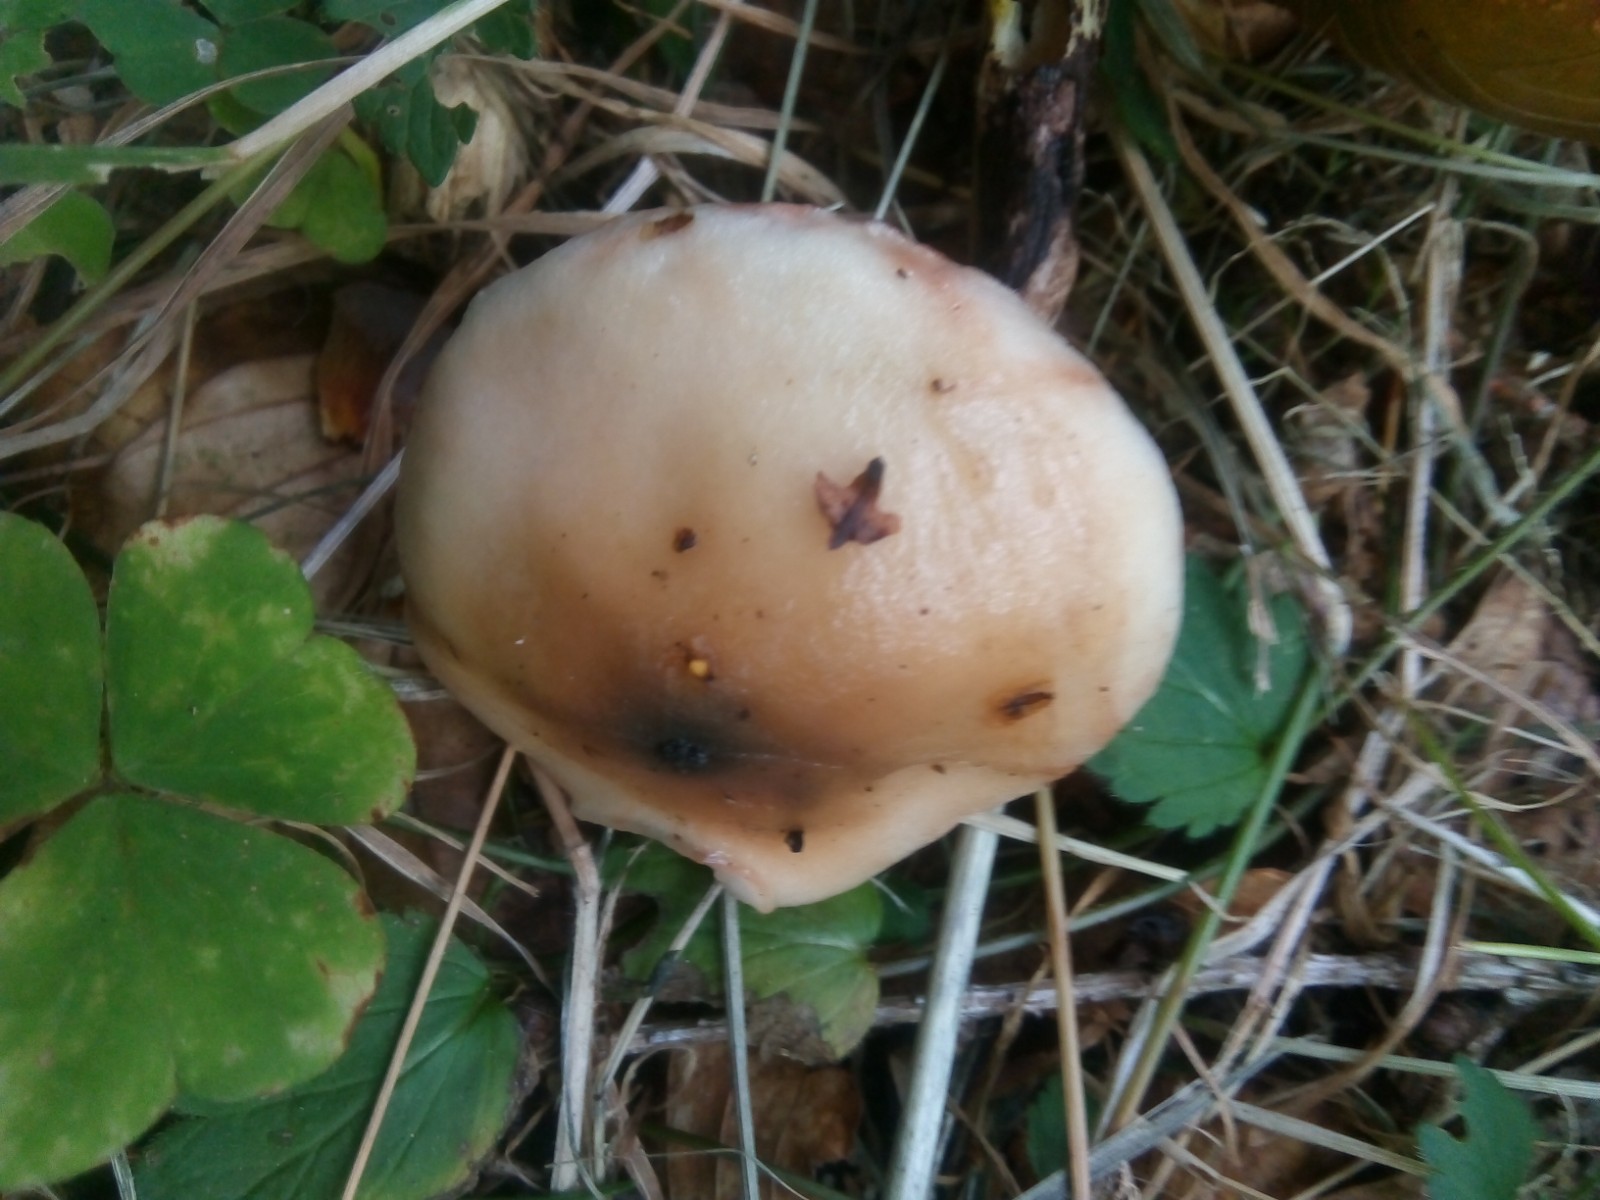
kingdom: Fungi
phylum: Basidiomycota
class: Agaricomycetes
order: Boletales
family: Gomphidiaceae
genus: Gomphidius
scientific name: Gomphidius maculatus
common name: rødmende slimslør
